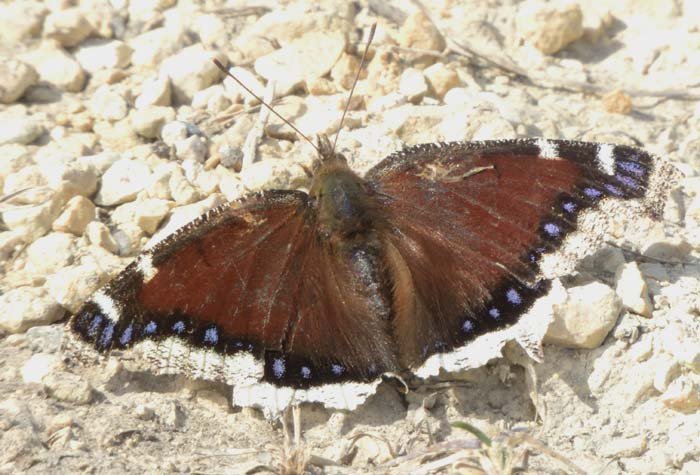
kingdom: Animalia
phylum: Arthropoda
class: Insecta
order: Lepidoptera
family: Nymphalidae
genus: Nymphalis
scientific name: Nymphalis antiopa
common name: Mourning Cloak
